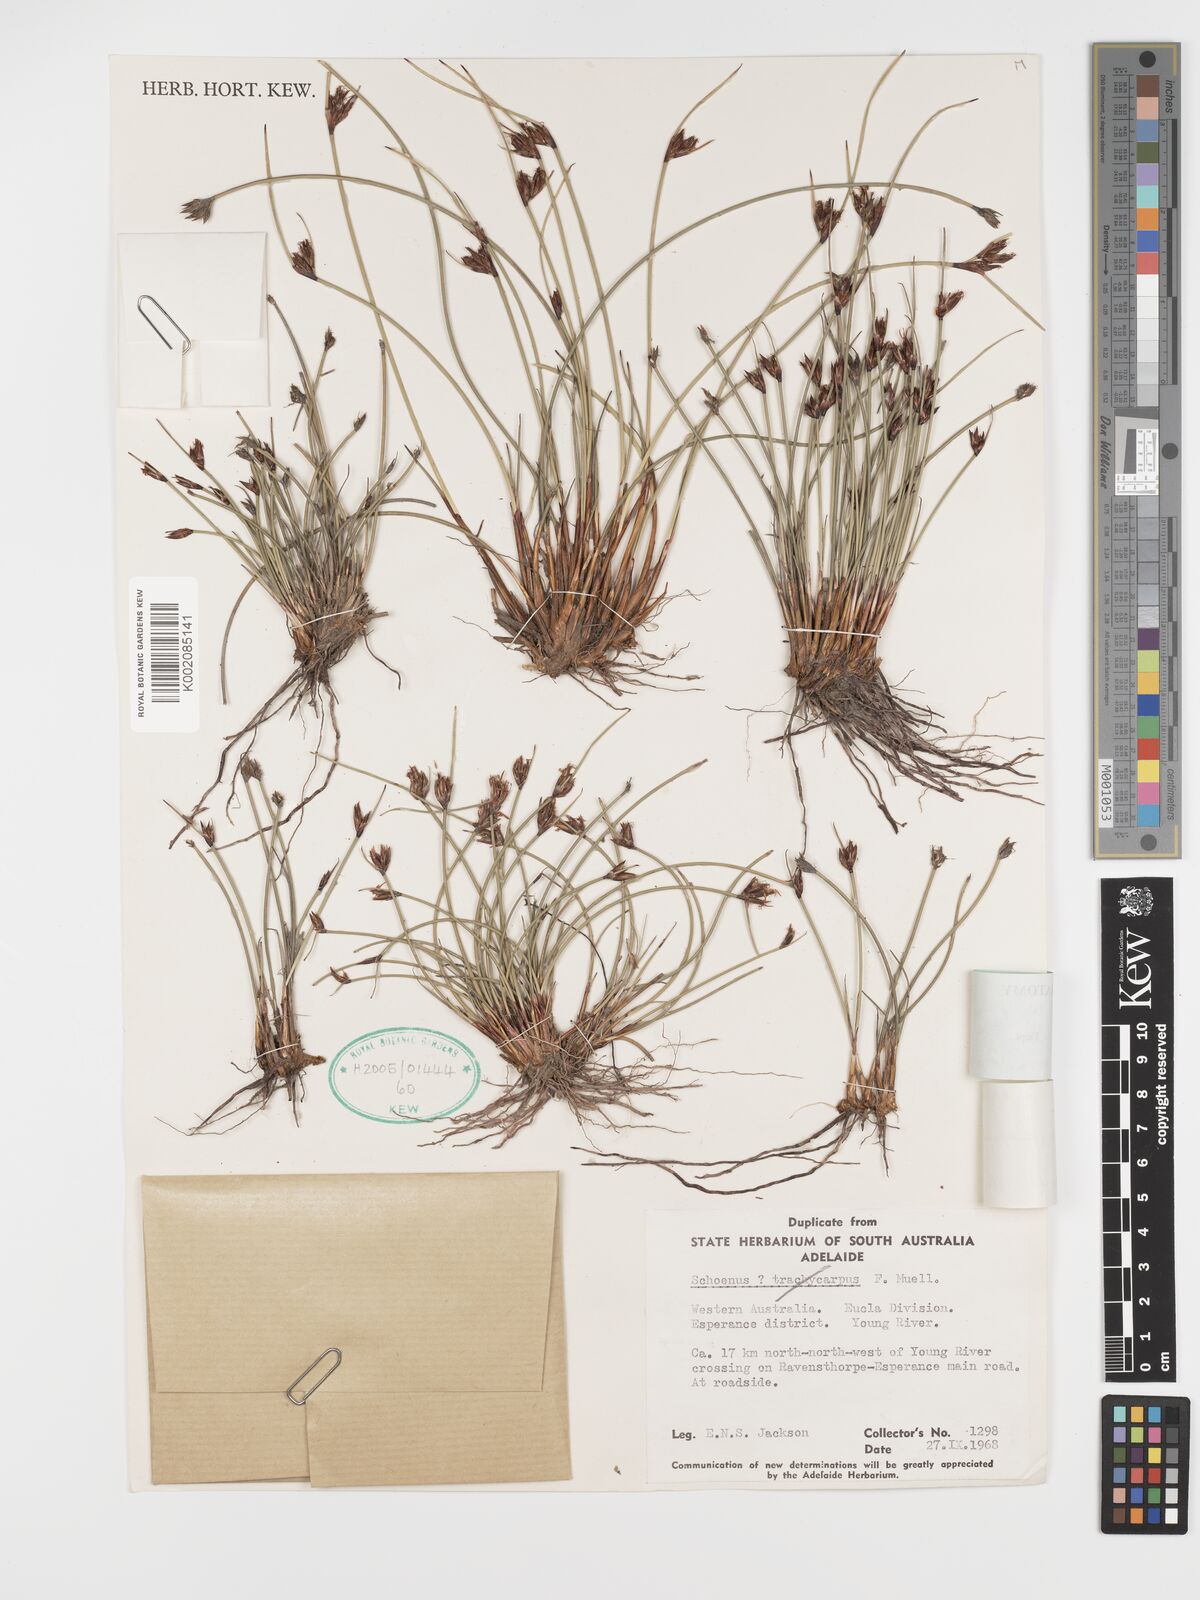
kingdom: Plantae
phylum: Tracheophyta
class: Liliopsida
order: Poales
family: Cyperaceae
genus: Schoenus
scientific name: Schoenus sesquispicula
